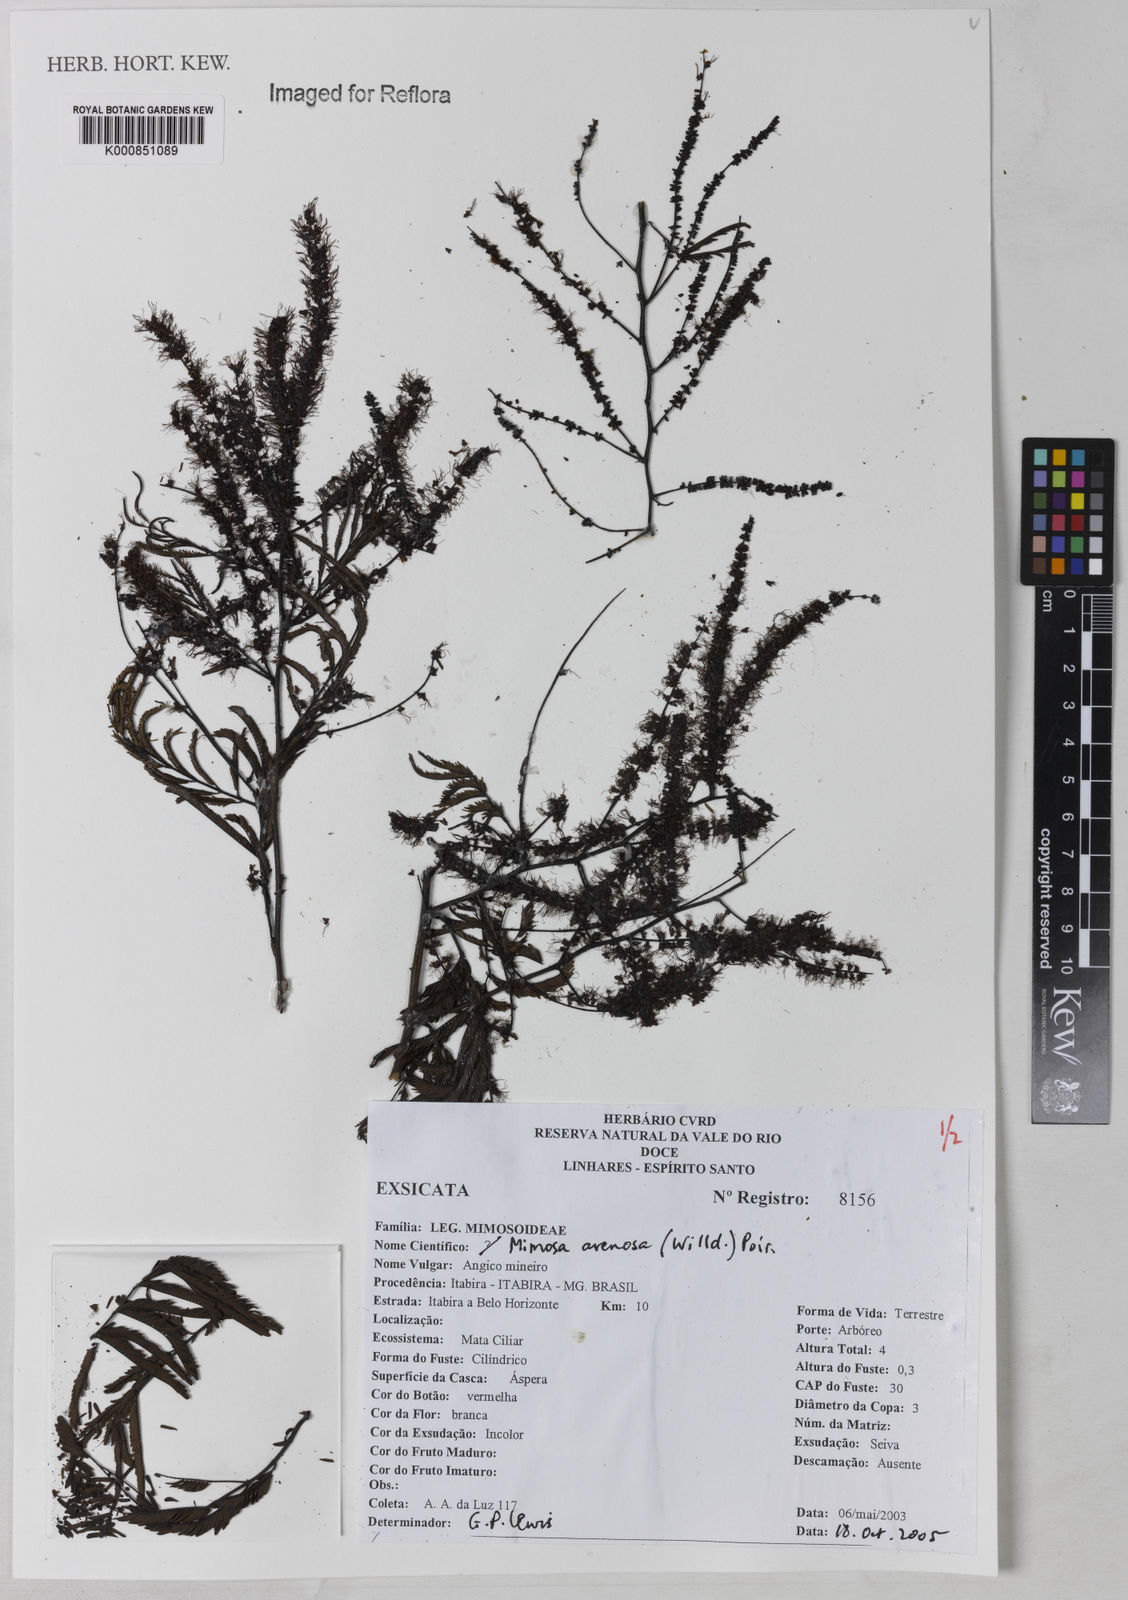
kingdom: Plantae
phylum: Tracheophyta
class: Magnoliopsida
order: Fabales
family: Fabaceae
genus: Mimosa
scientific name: Mimosa arenosa
